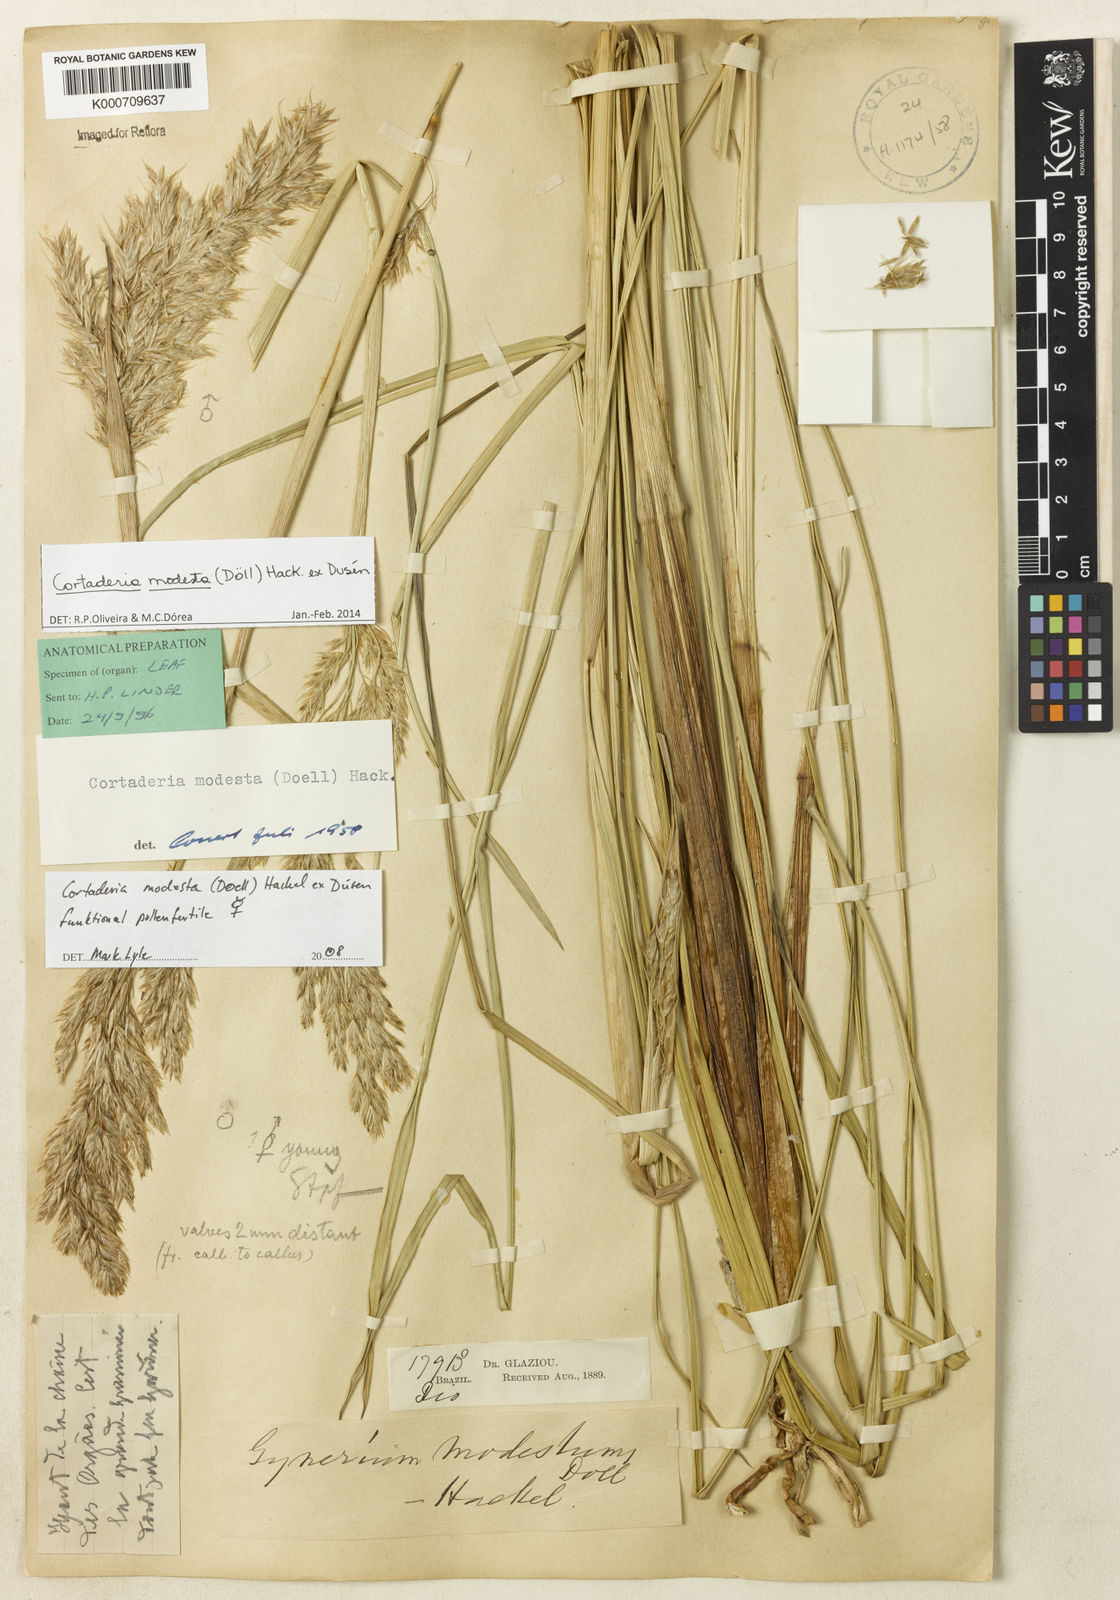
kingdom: Plantae
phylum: Tracheophyta
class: Liliopsida
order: Poales
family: Poaceae
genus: Cortaderia
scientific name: Cortaderia
